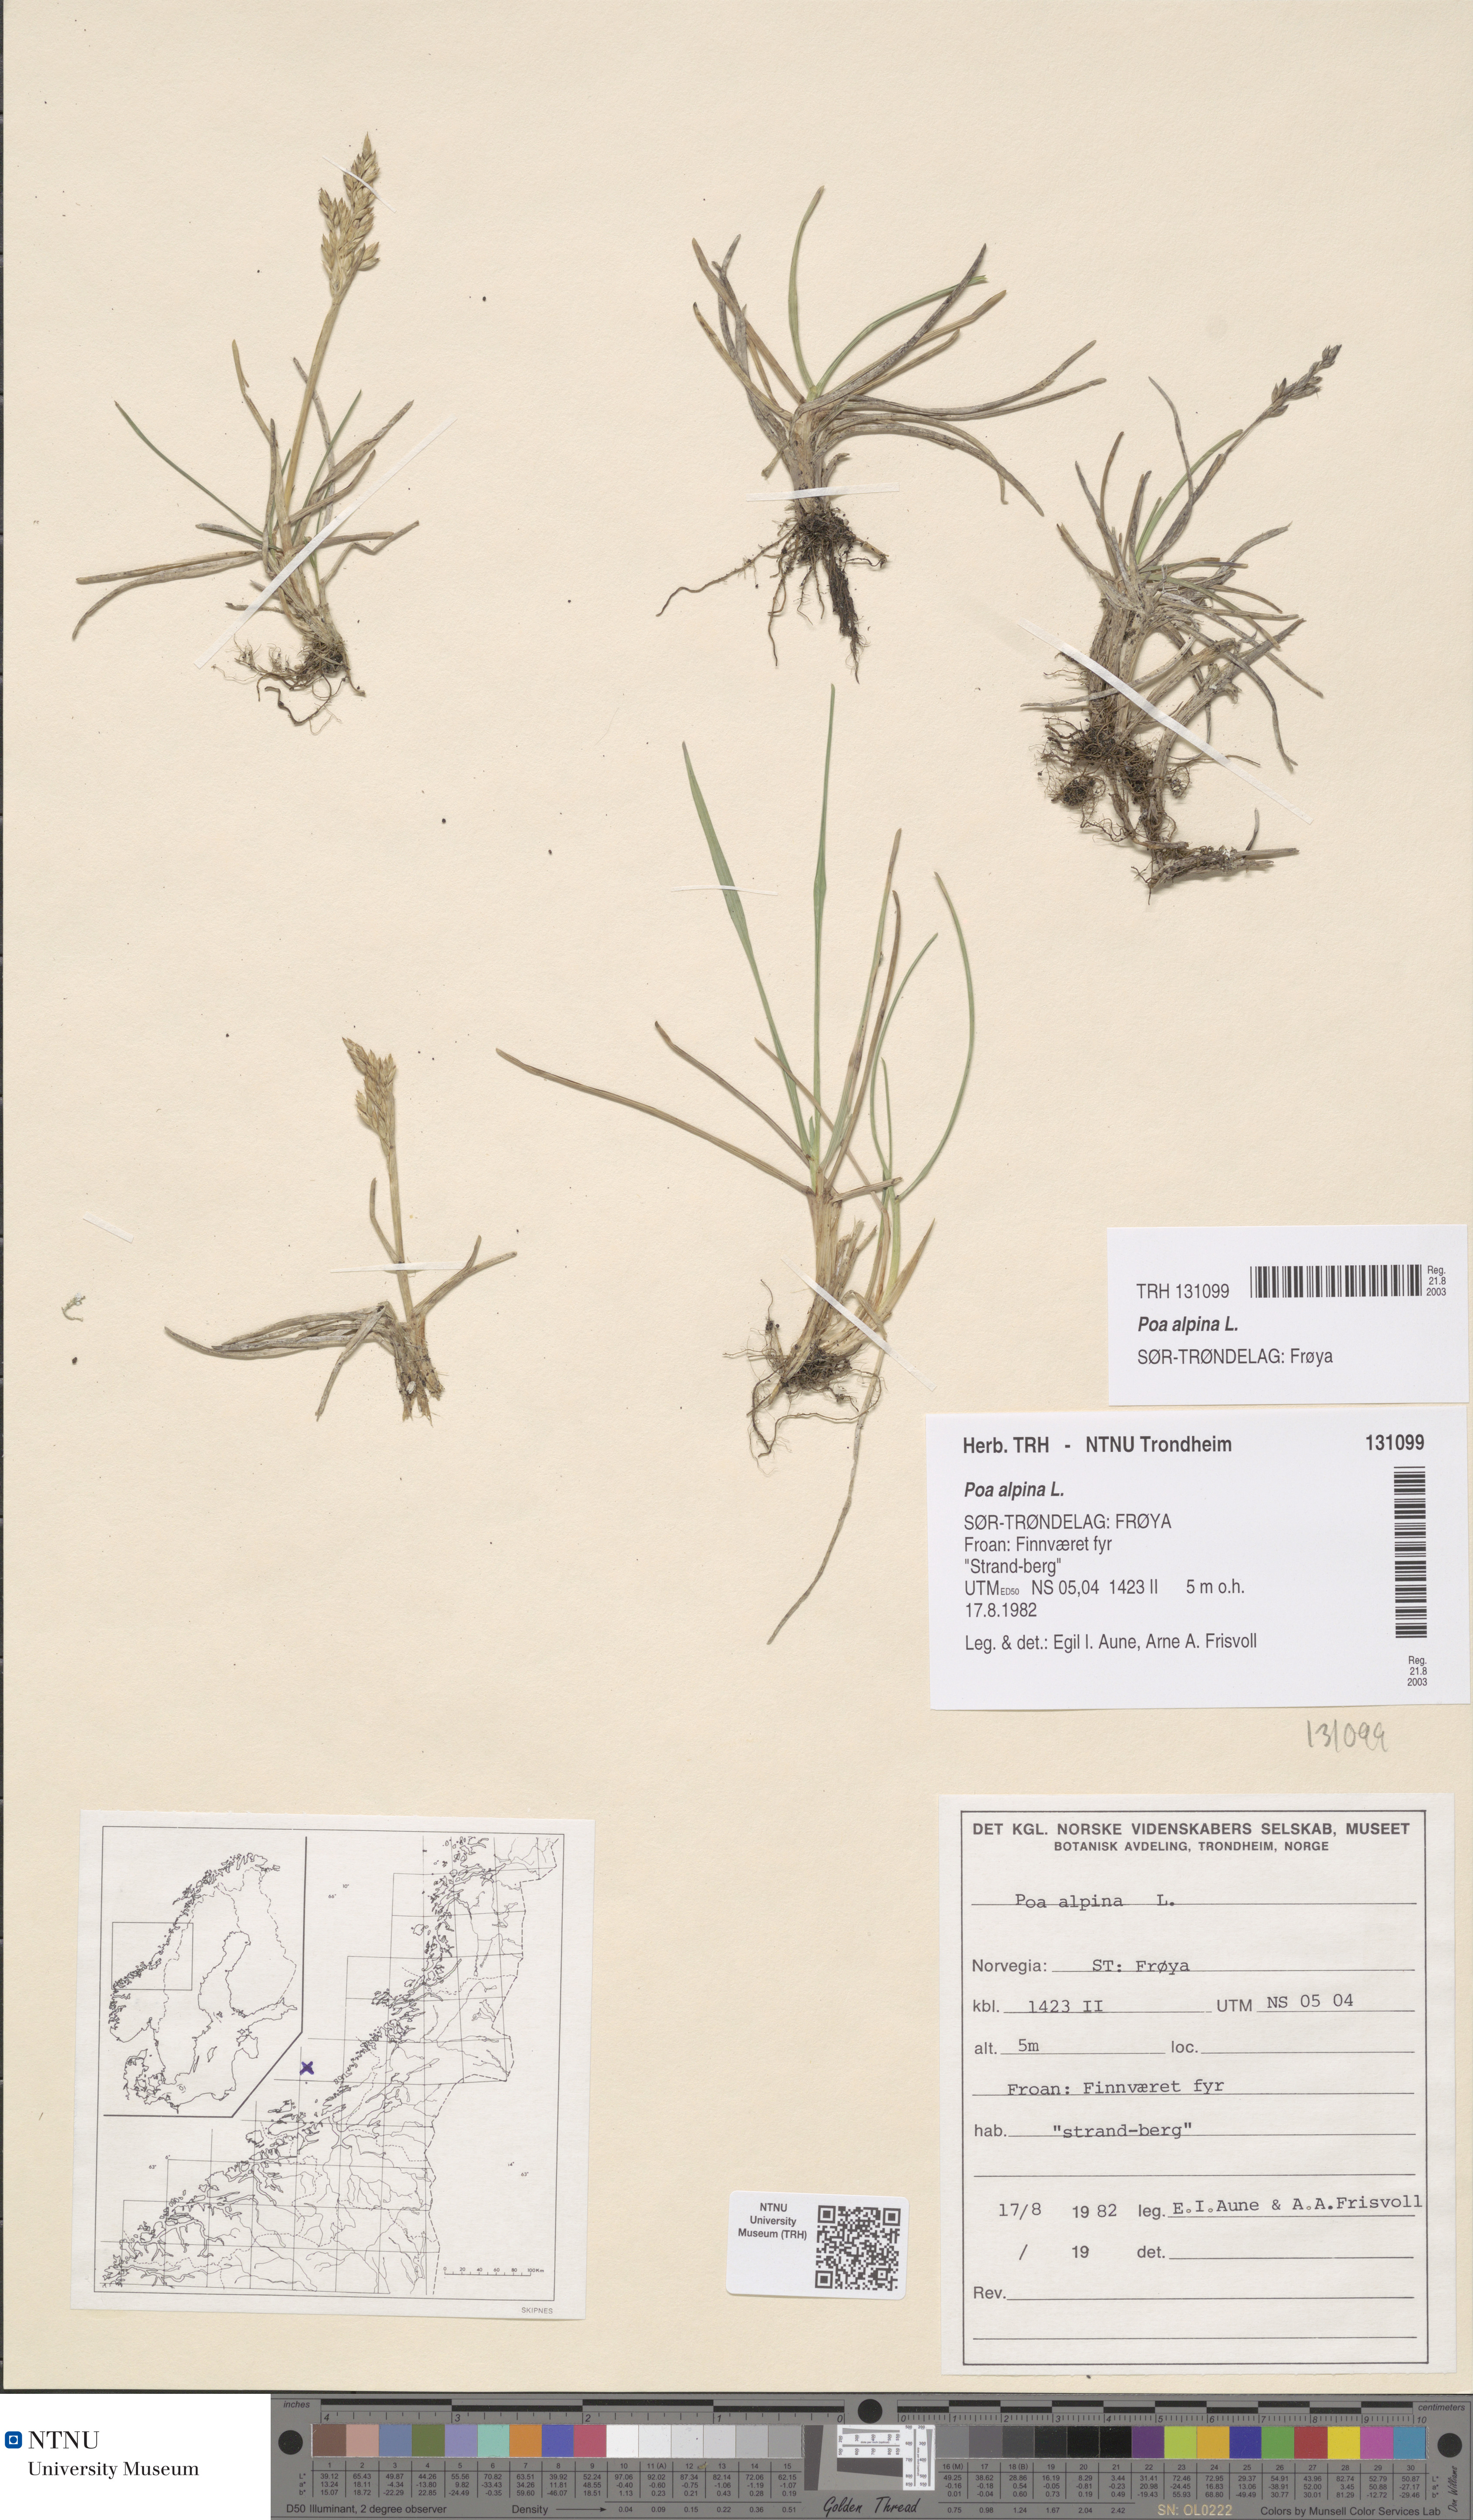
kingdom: Plantae
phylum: Tracheophyta
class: Liliopsida
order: Poales
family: Poaceae
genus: Poa
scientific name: Poa alpina
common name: Alpine bluegrass
